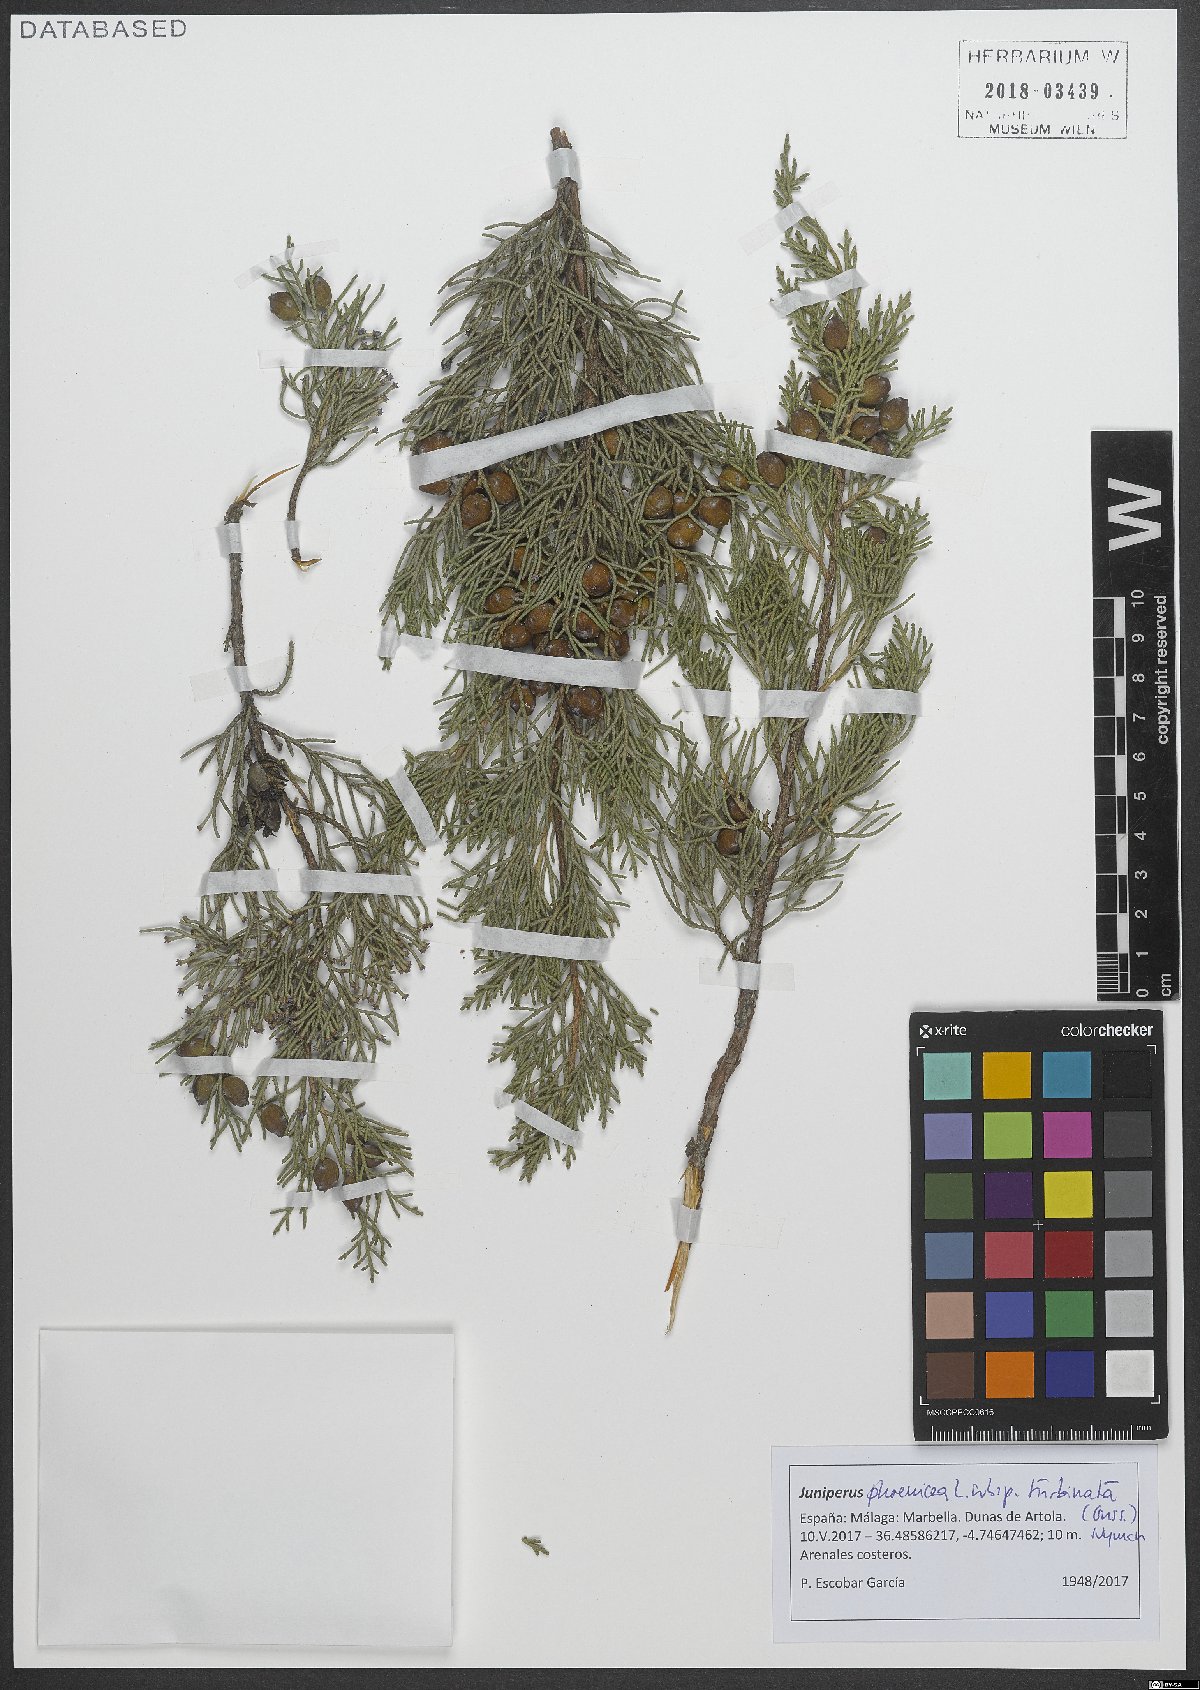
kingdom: Plantae
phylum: Tracheophyta
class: Pinopsida
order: Pinales
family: Cupressaceae
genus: Juniperus
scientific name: Juniperus phoenicea
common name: Phoenician juniper
